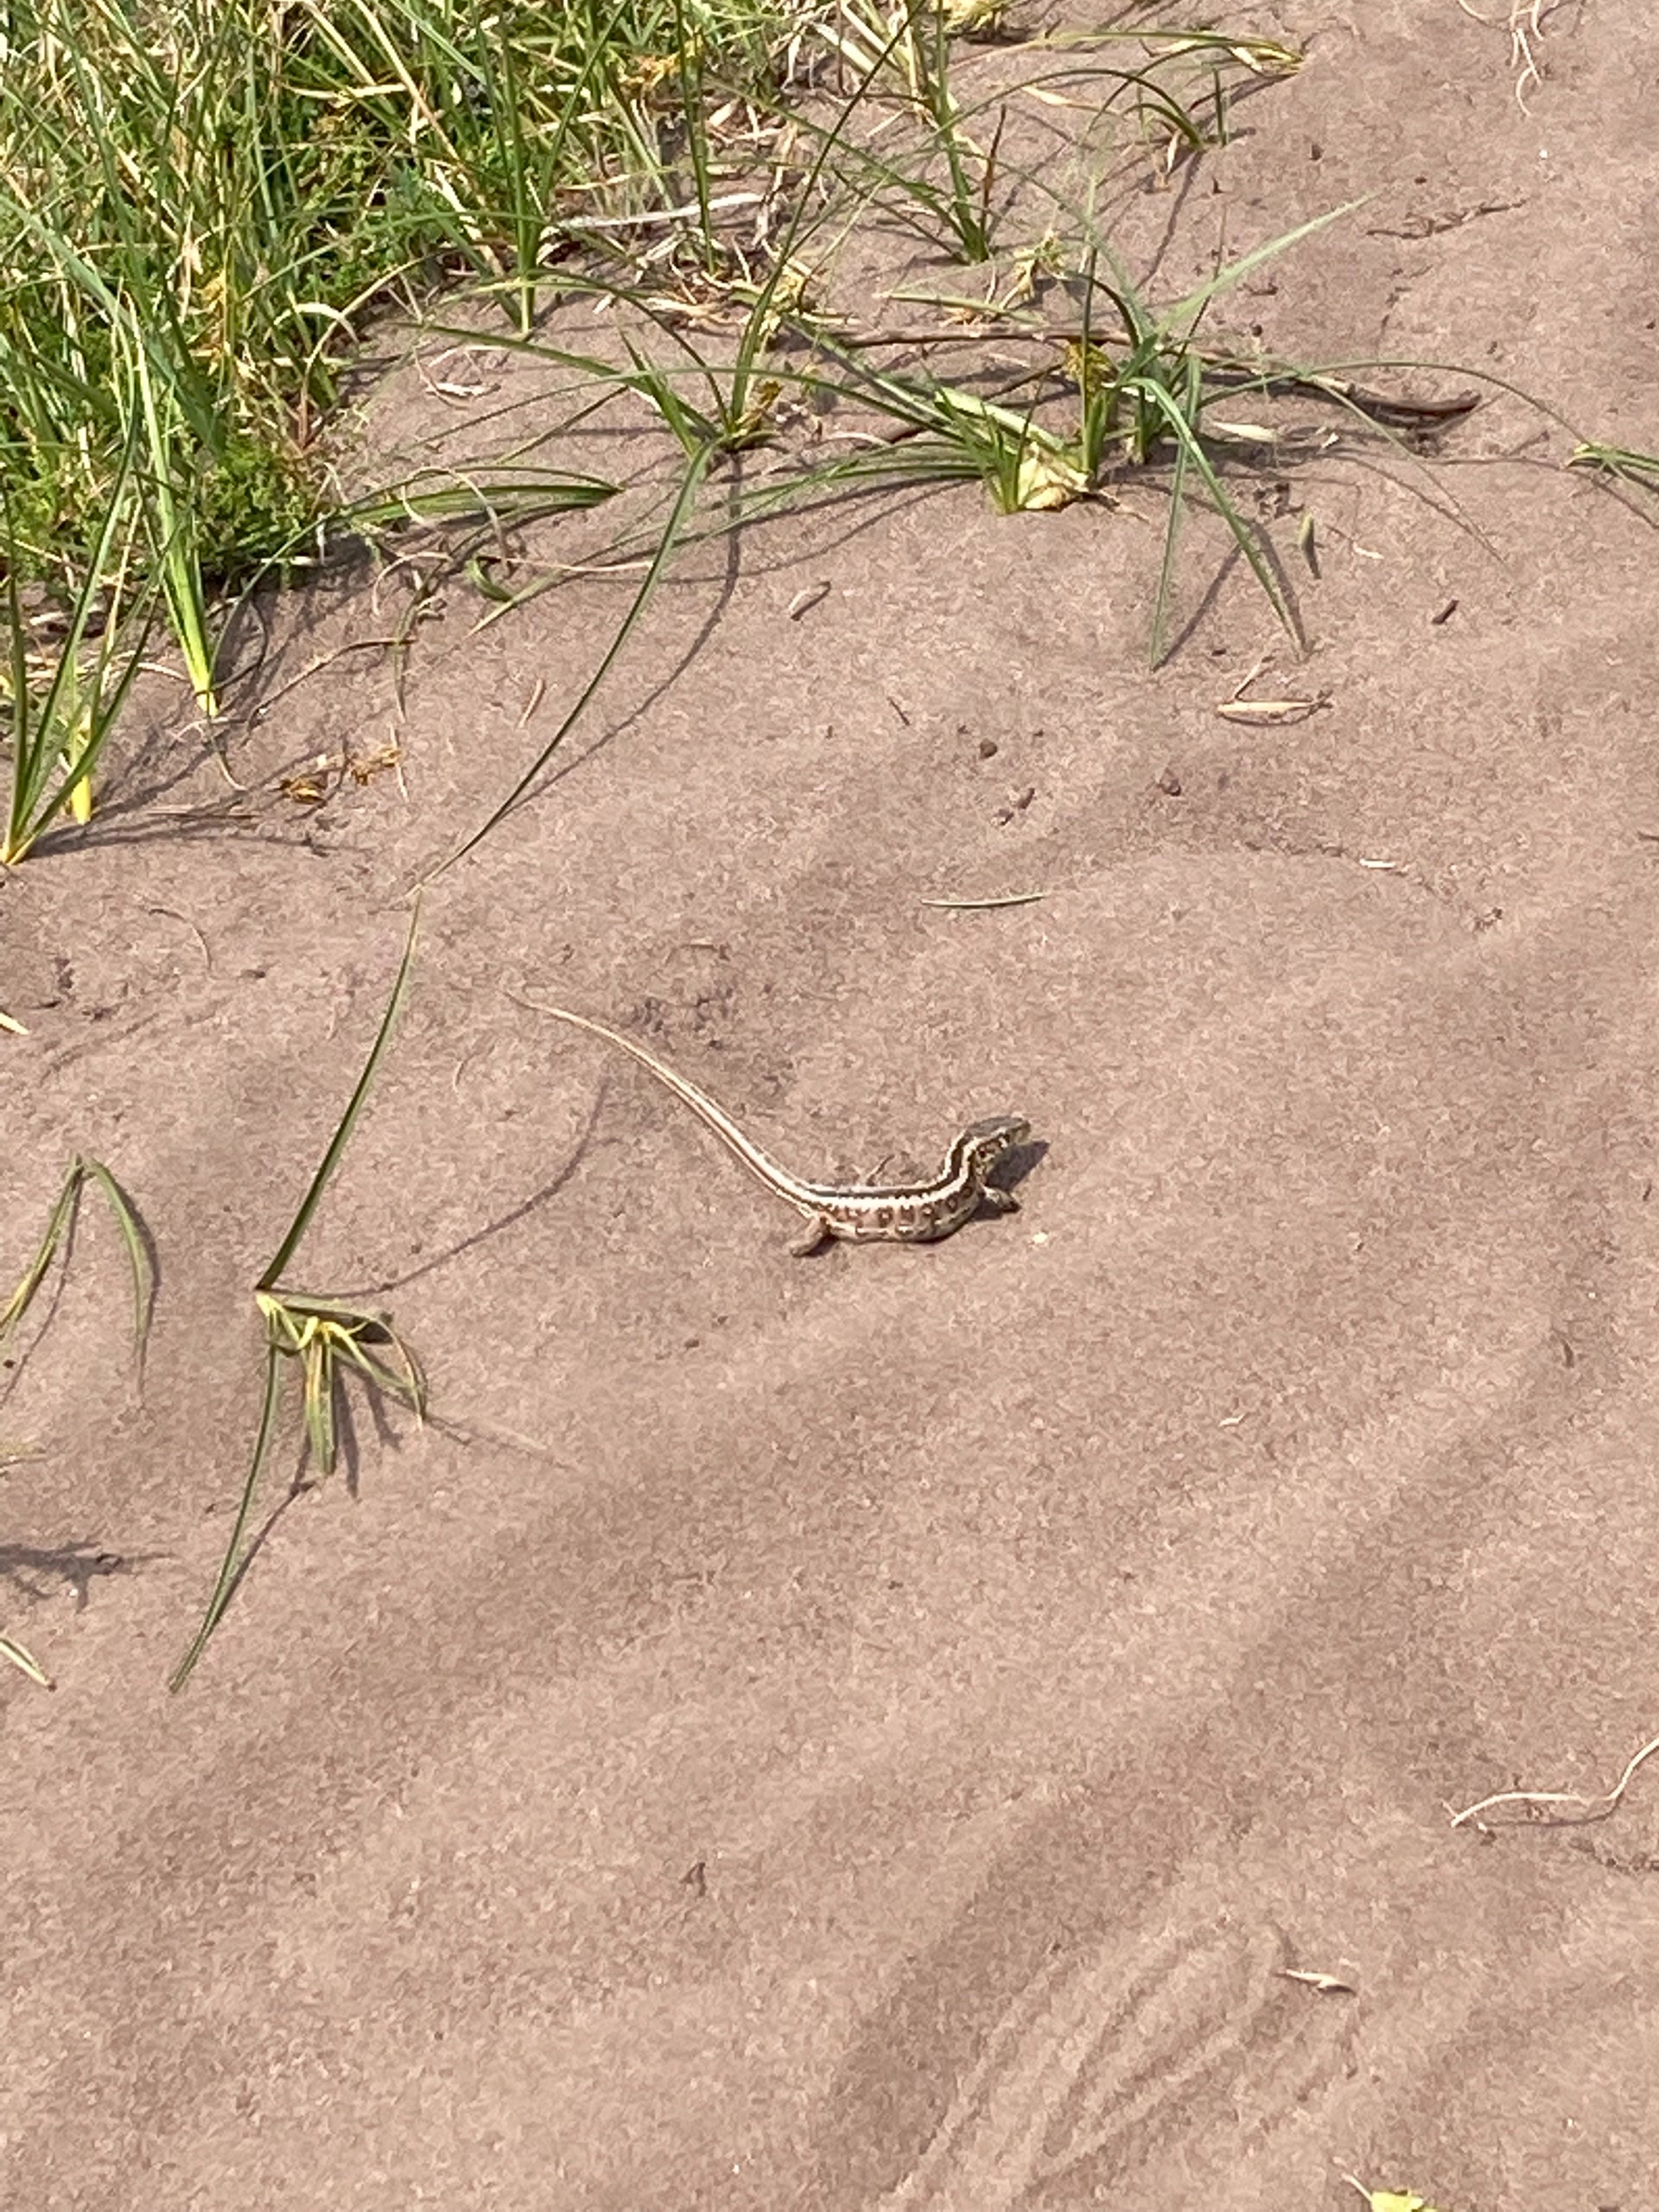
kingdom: Animalia
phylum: Chordata
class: Squamata
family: Lacertidae
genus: Lacerta
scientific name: Lacerta agilis
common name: Markfirben
